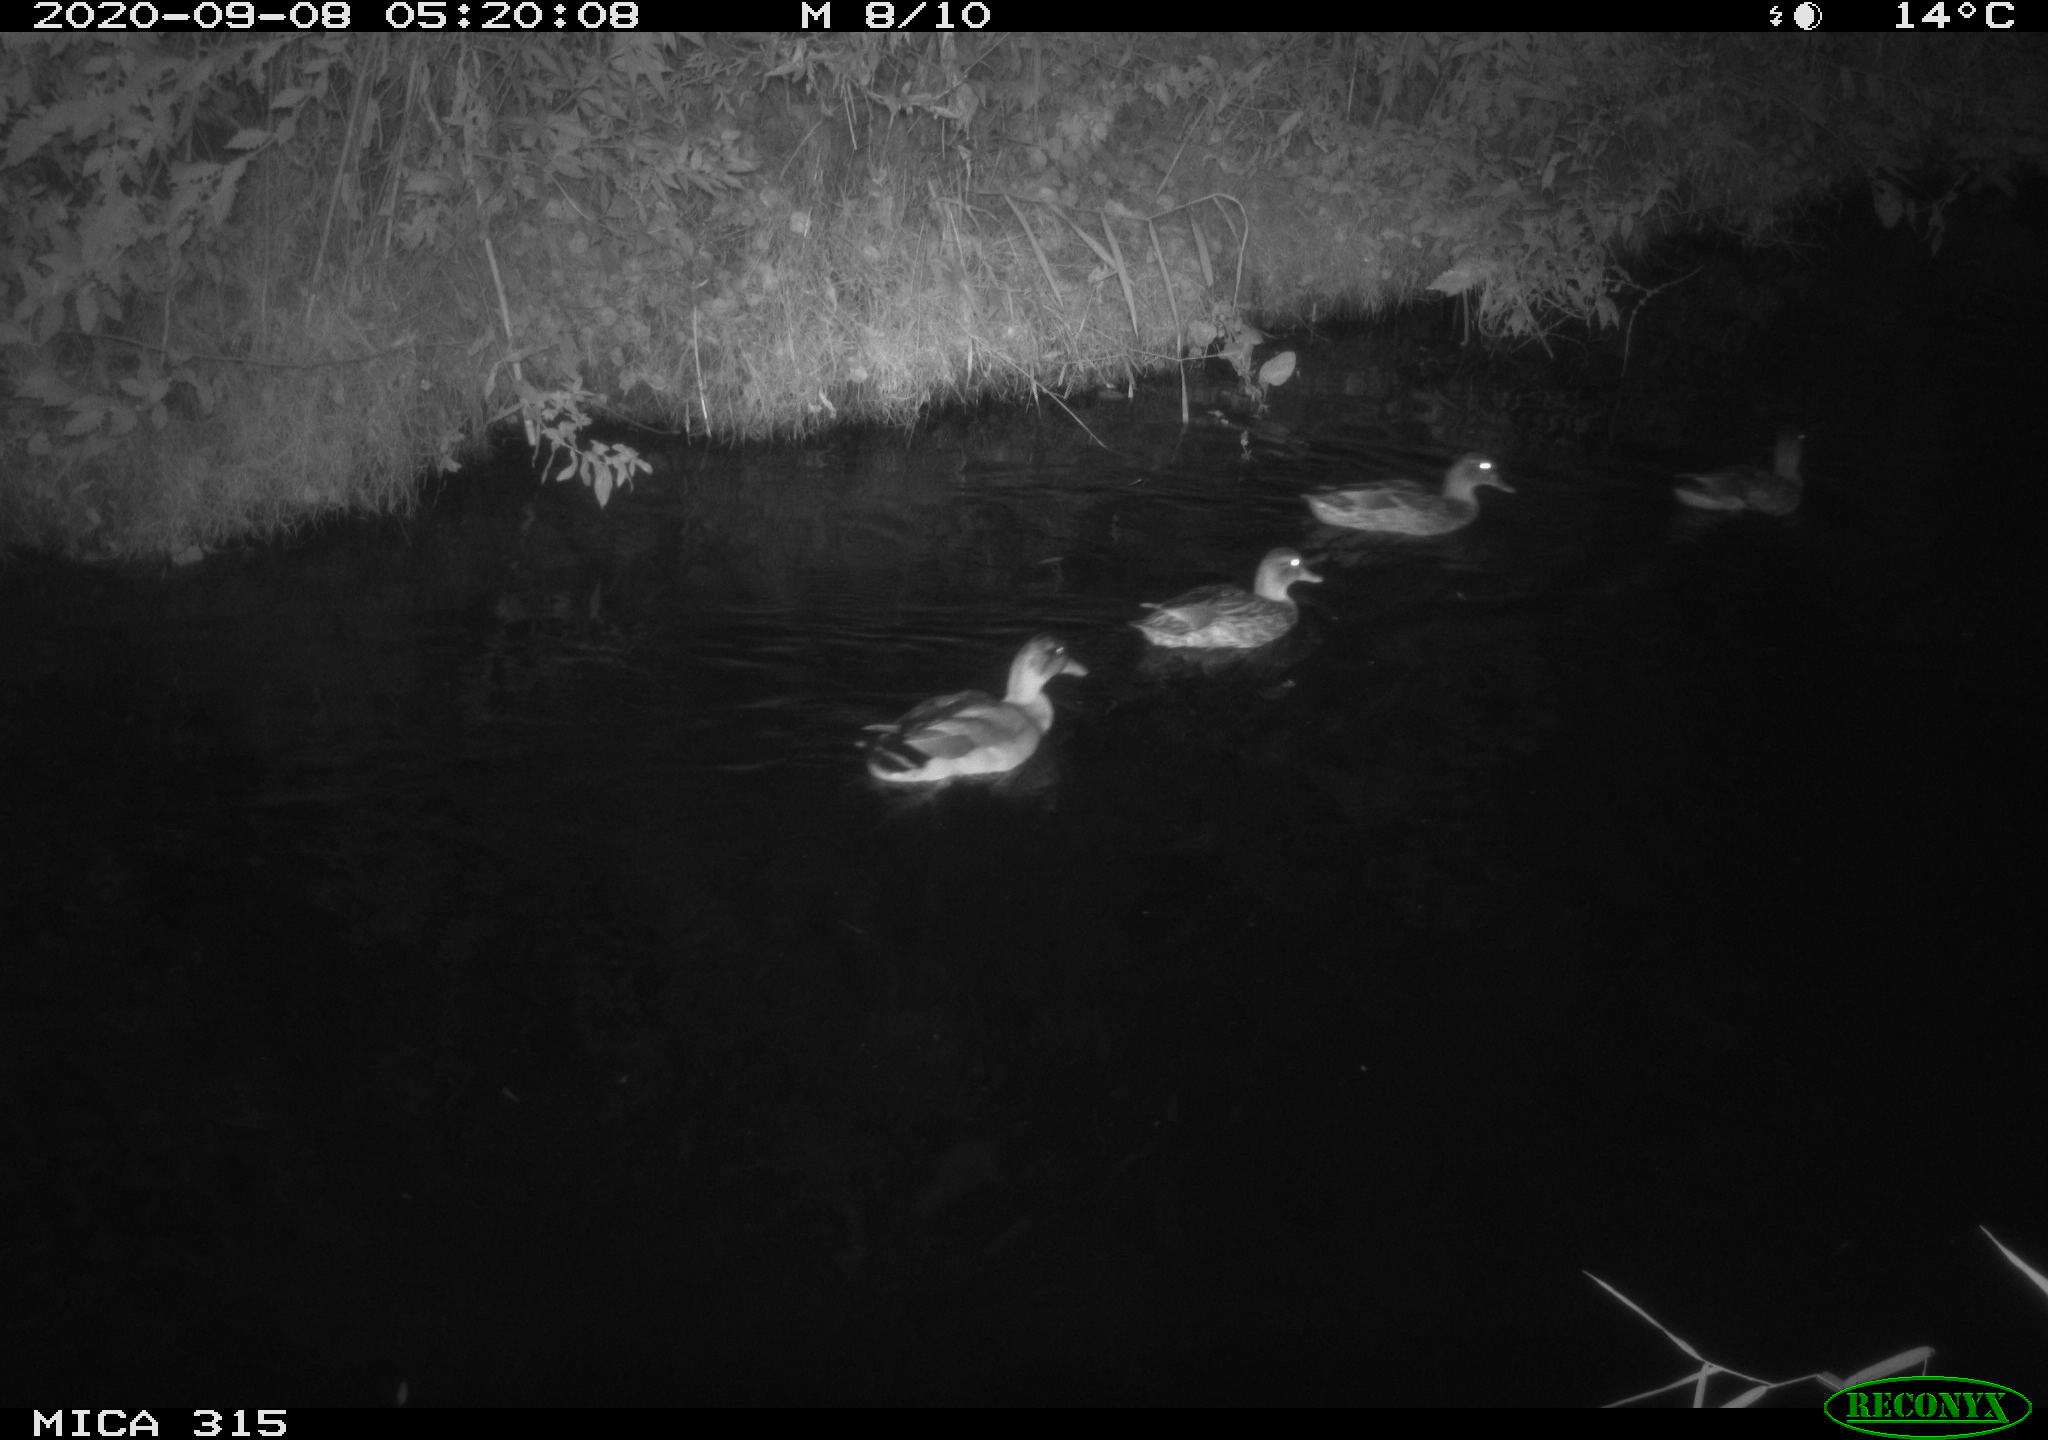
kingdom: Animalia
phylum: Chordata
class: Aves
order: Anseriformes
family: Anatidae
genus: Anas
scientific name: Anas platyrhynchos
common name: Mallard
